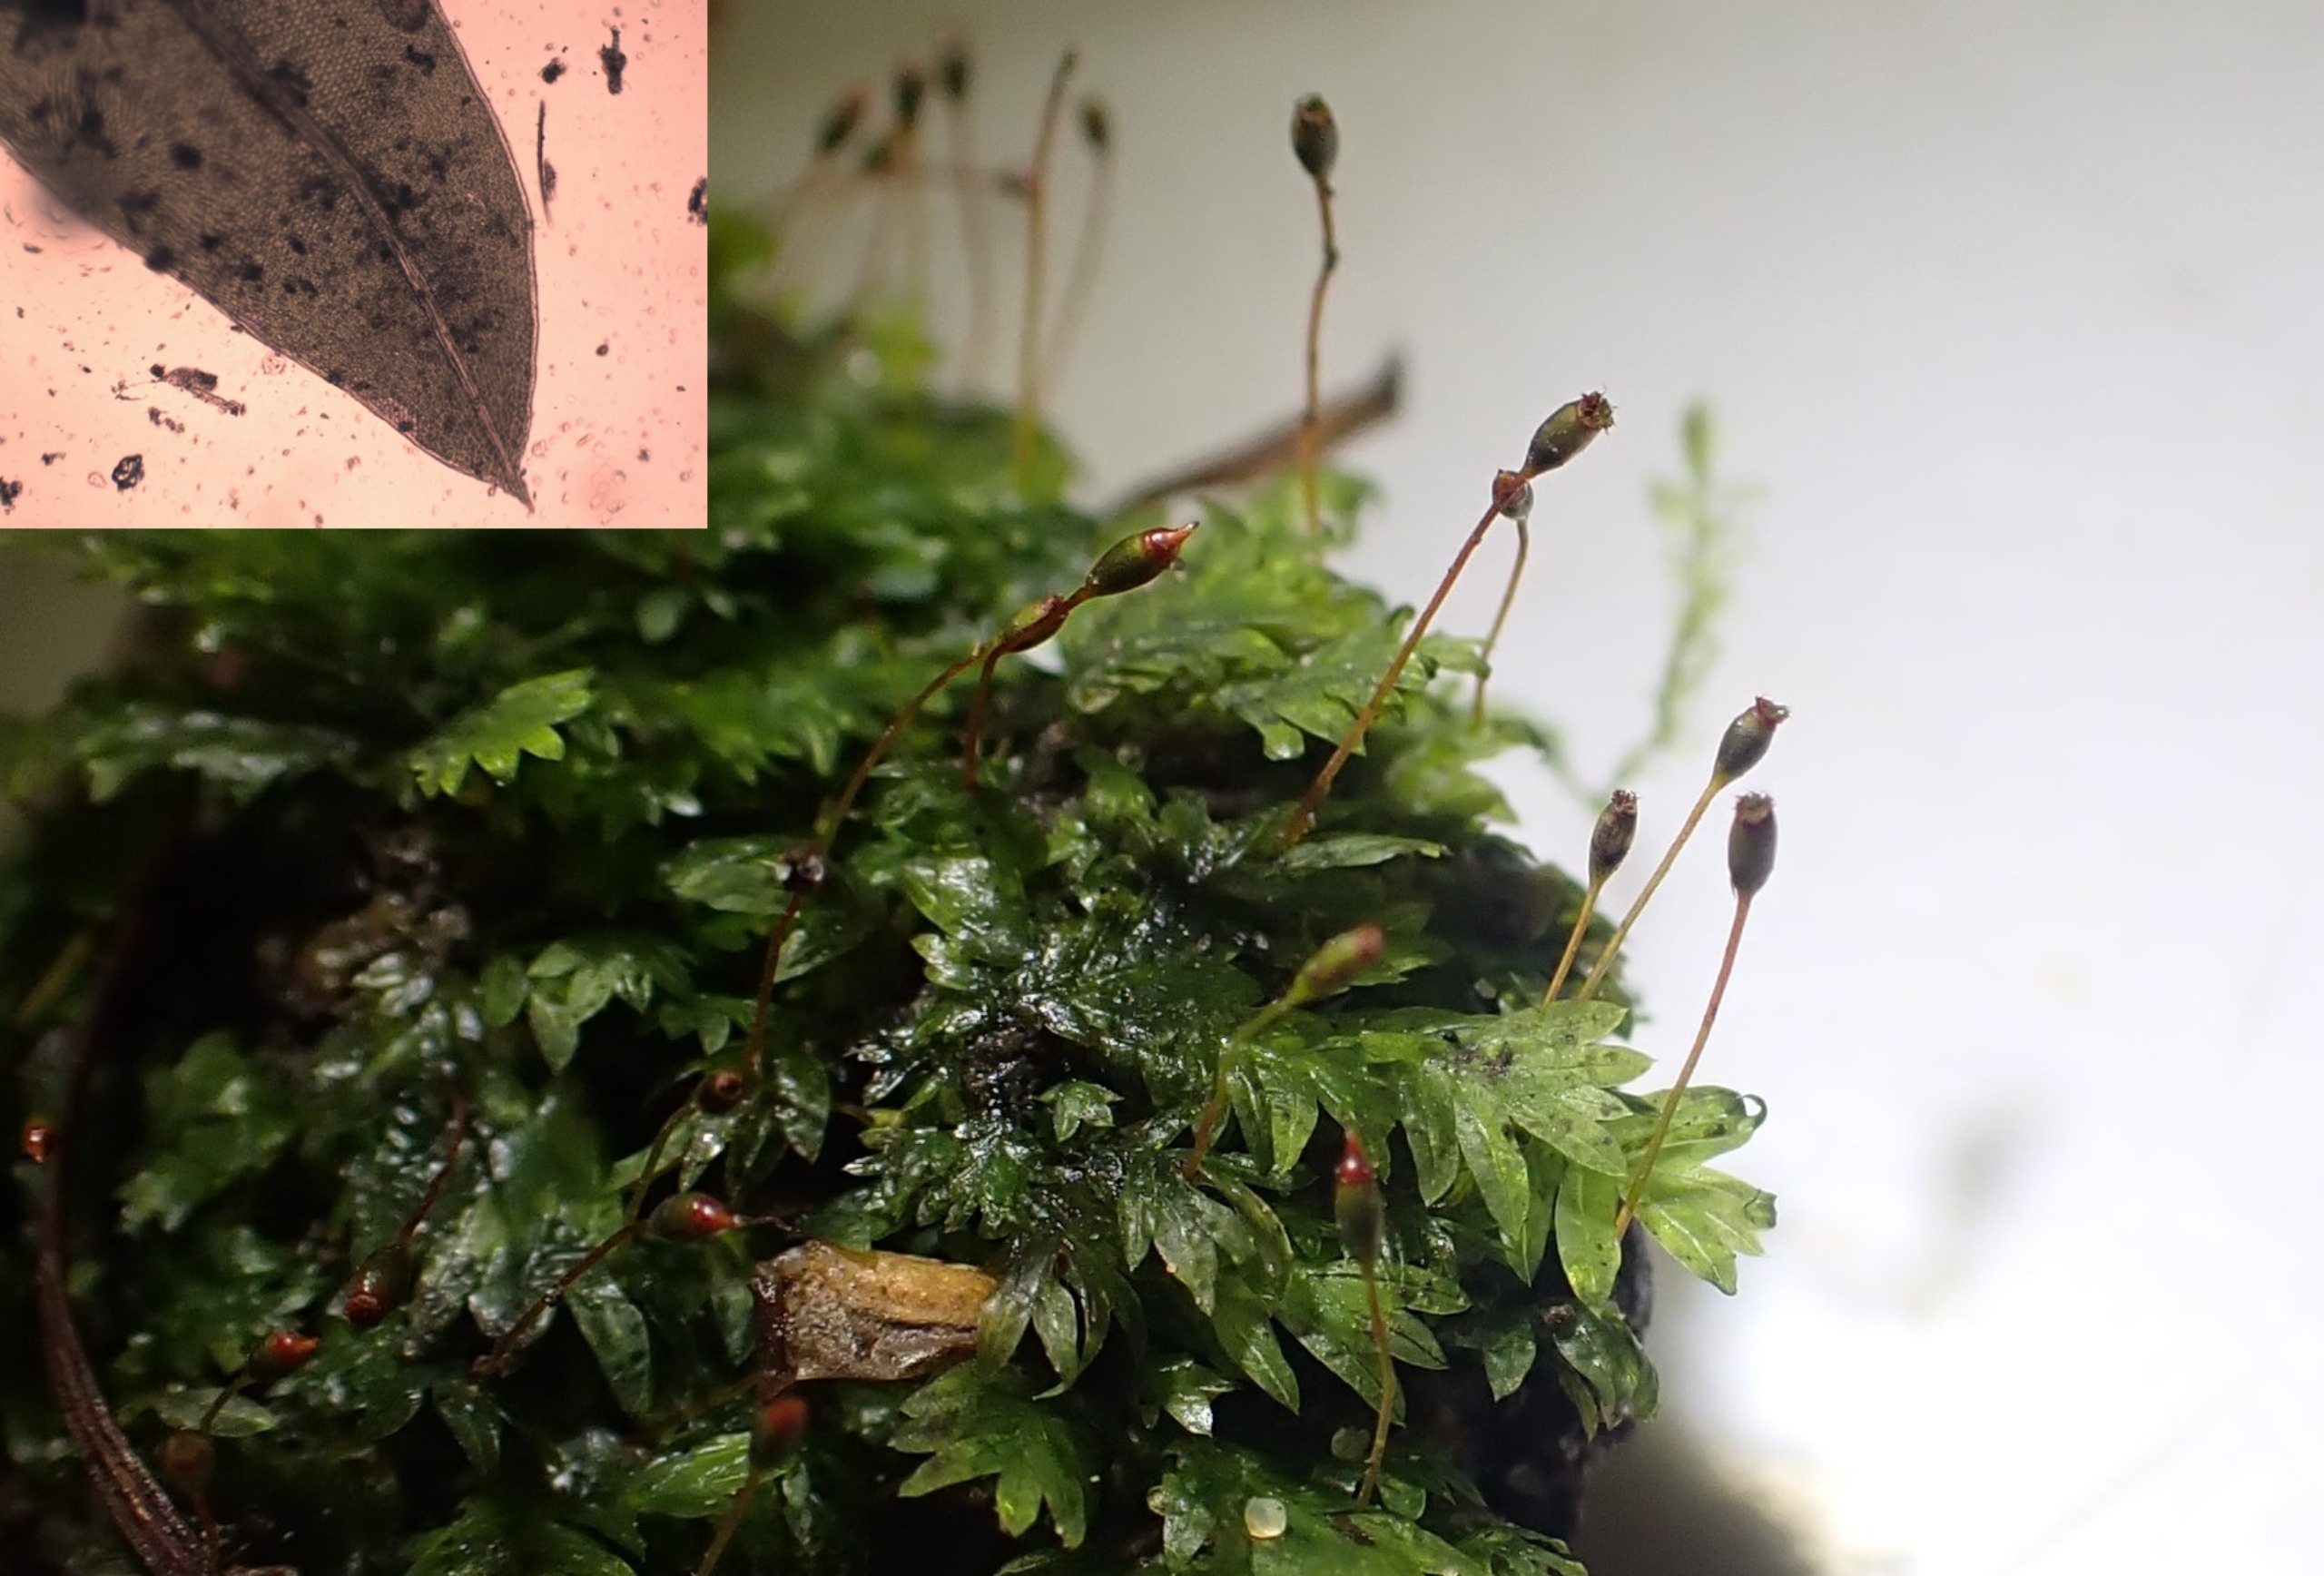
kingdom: Plantae
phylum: Bryophyta
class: Bryopsida
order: Dicranales
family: Fissidentaceae
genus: Fissidens
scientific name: Fissidens bryoides
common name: Top-rademos
